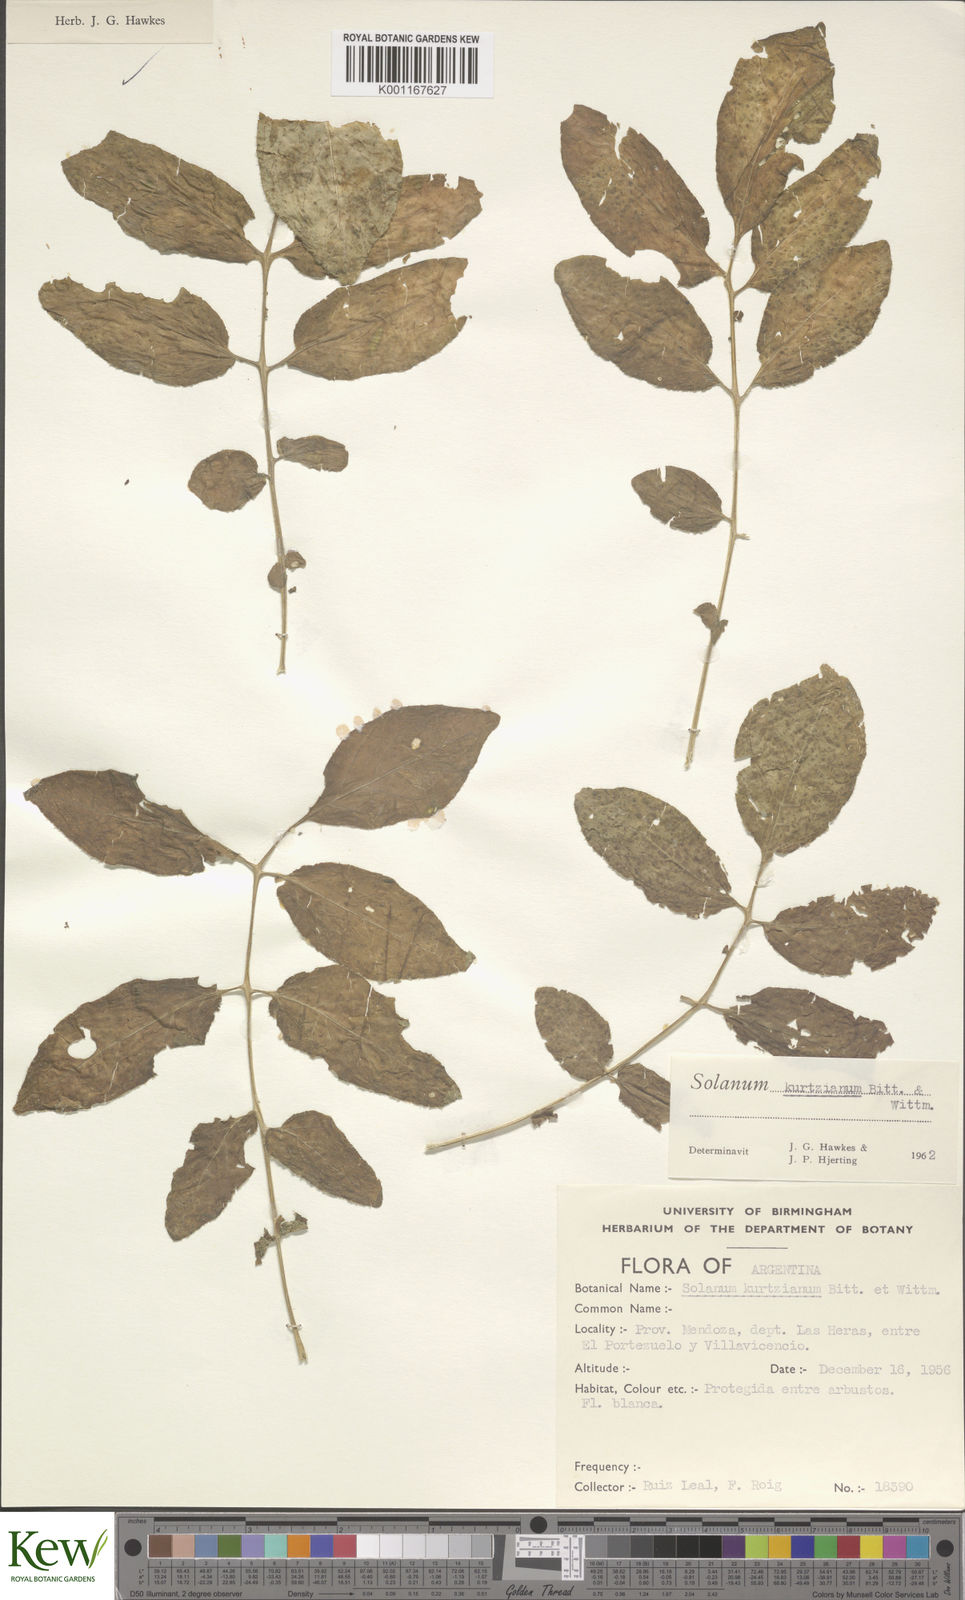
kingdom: Plantae
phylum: Tracheophyta
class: Magnoliopsida
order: Solanales
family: Solanaceae
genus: Solanum
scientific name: Solanum kurtzianum
